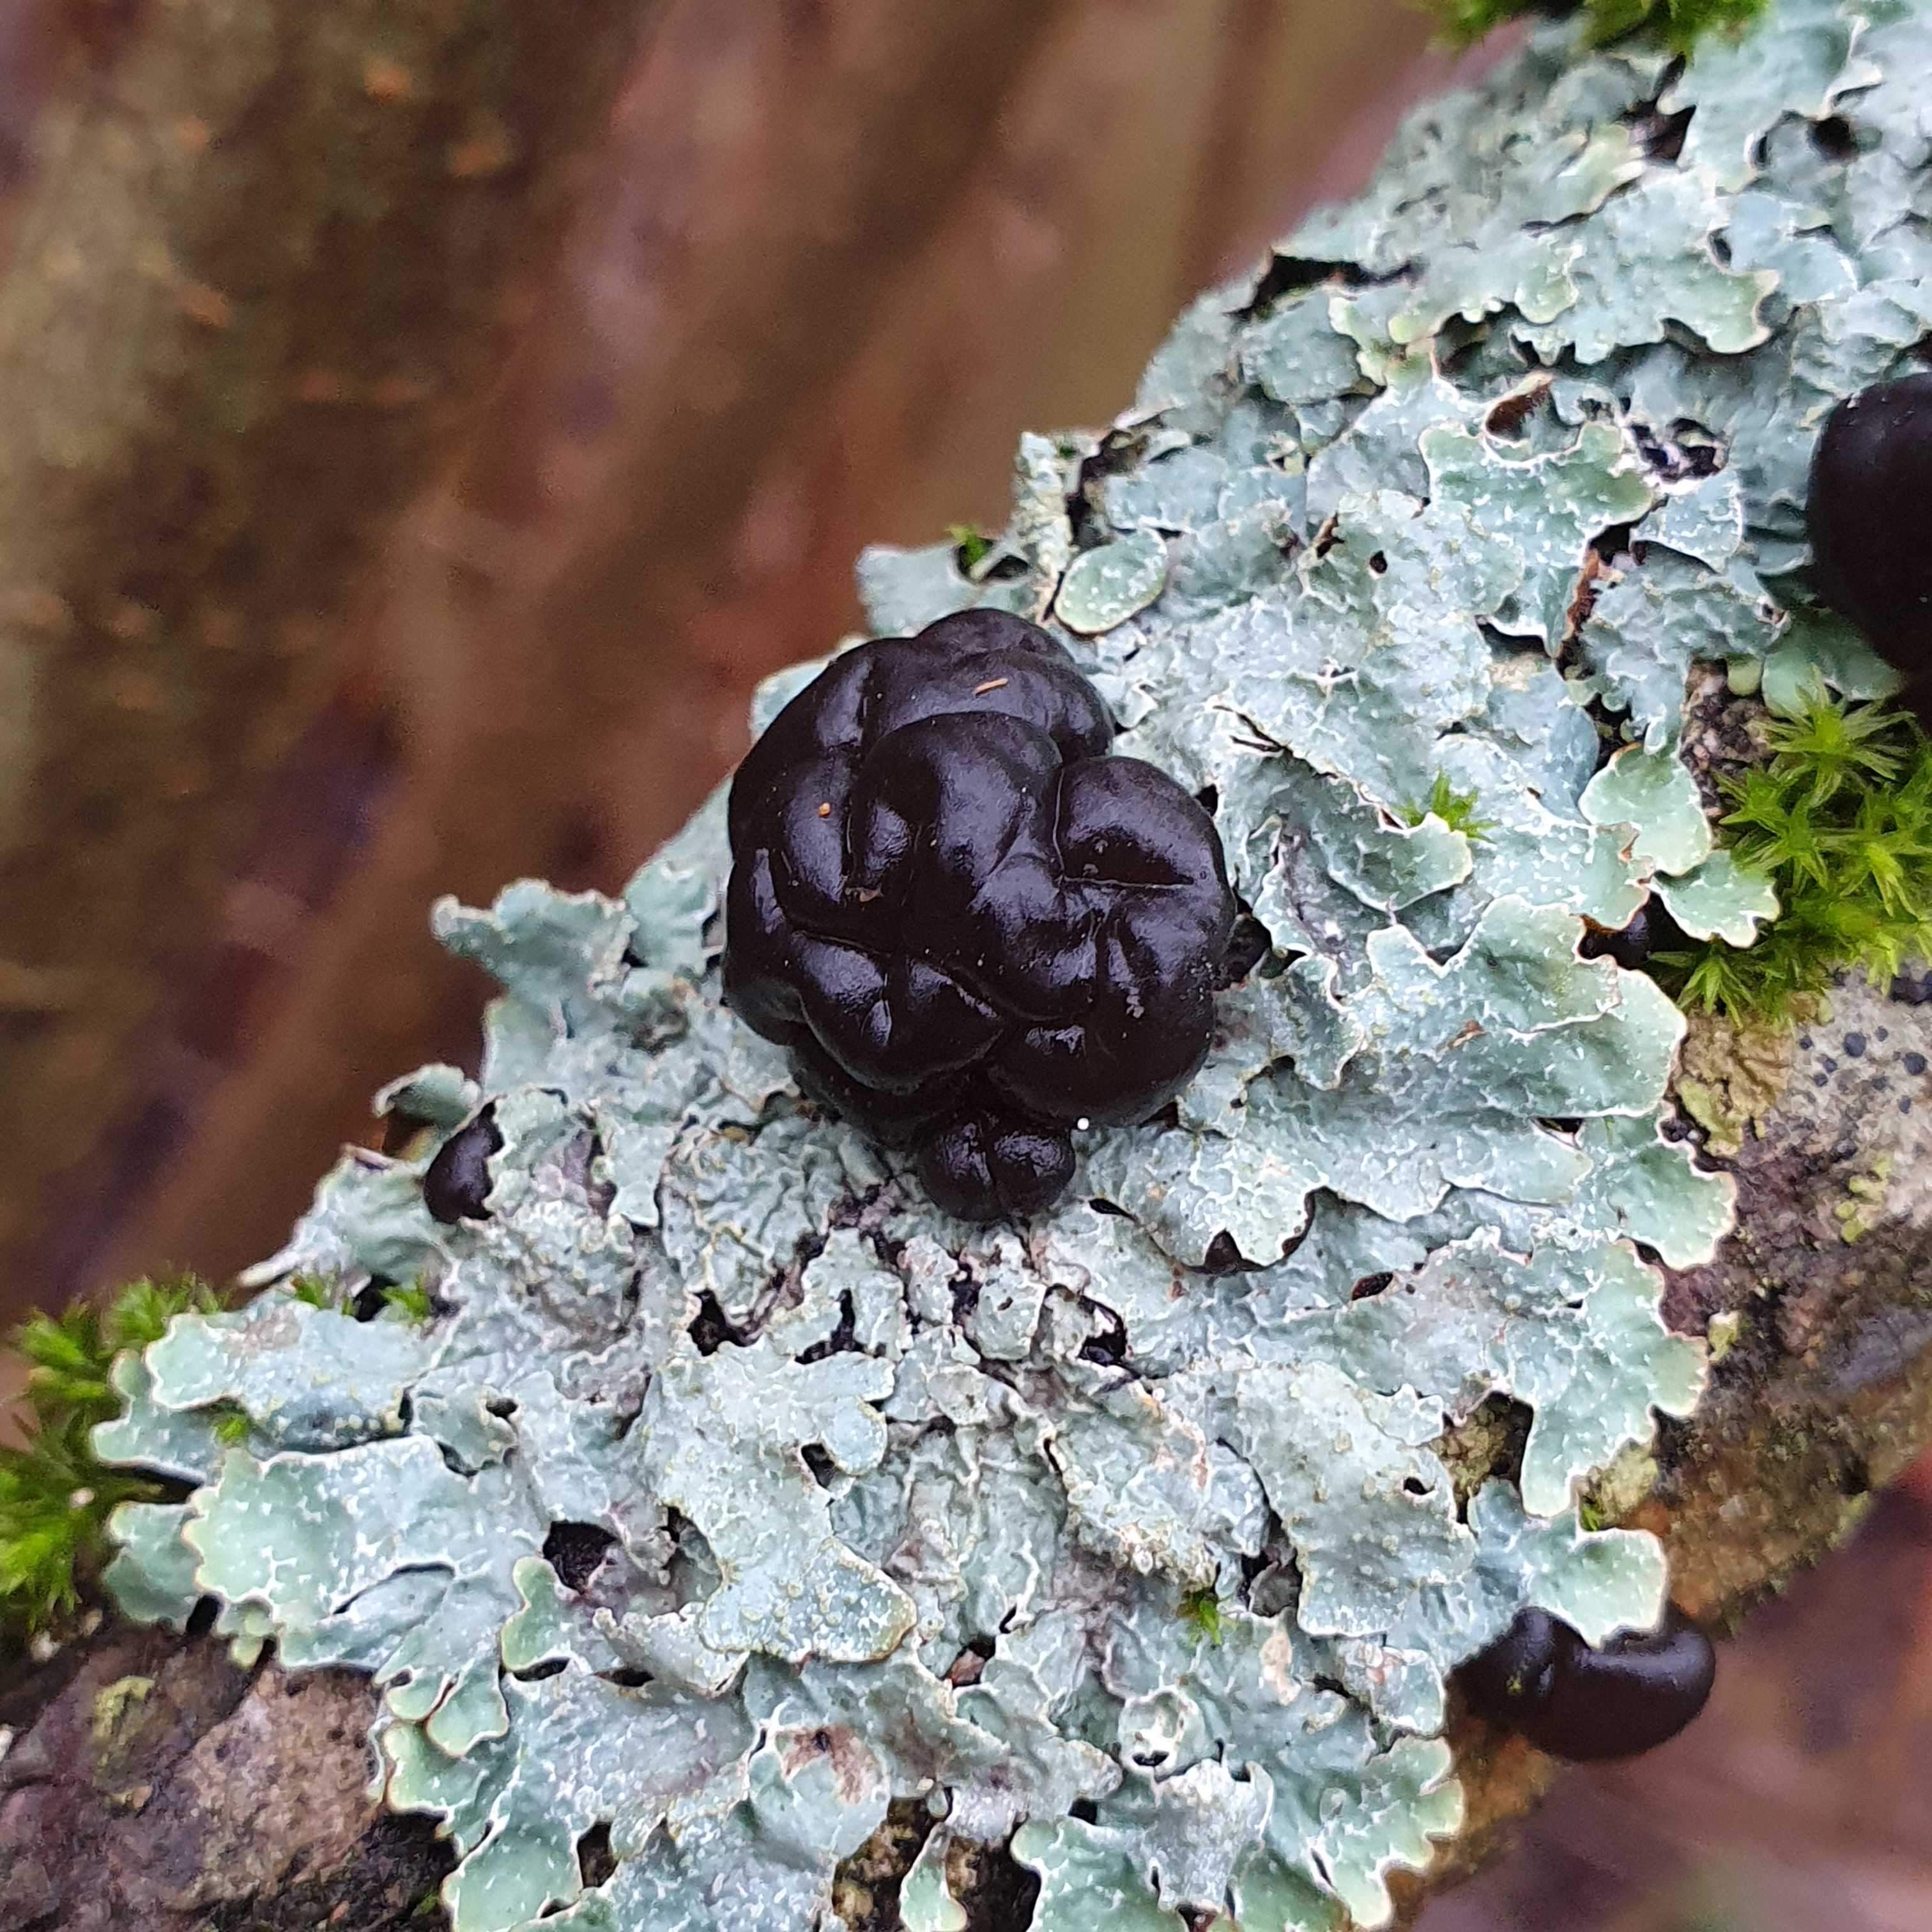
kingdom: Fungi
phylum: Basidiomycota
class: Agaricomycetes
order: Auriculariales
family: Auriculariaceae
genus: Exidia
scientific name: Exidia nigricans
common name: almindelig bævretop
